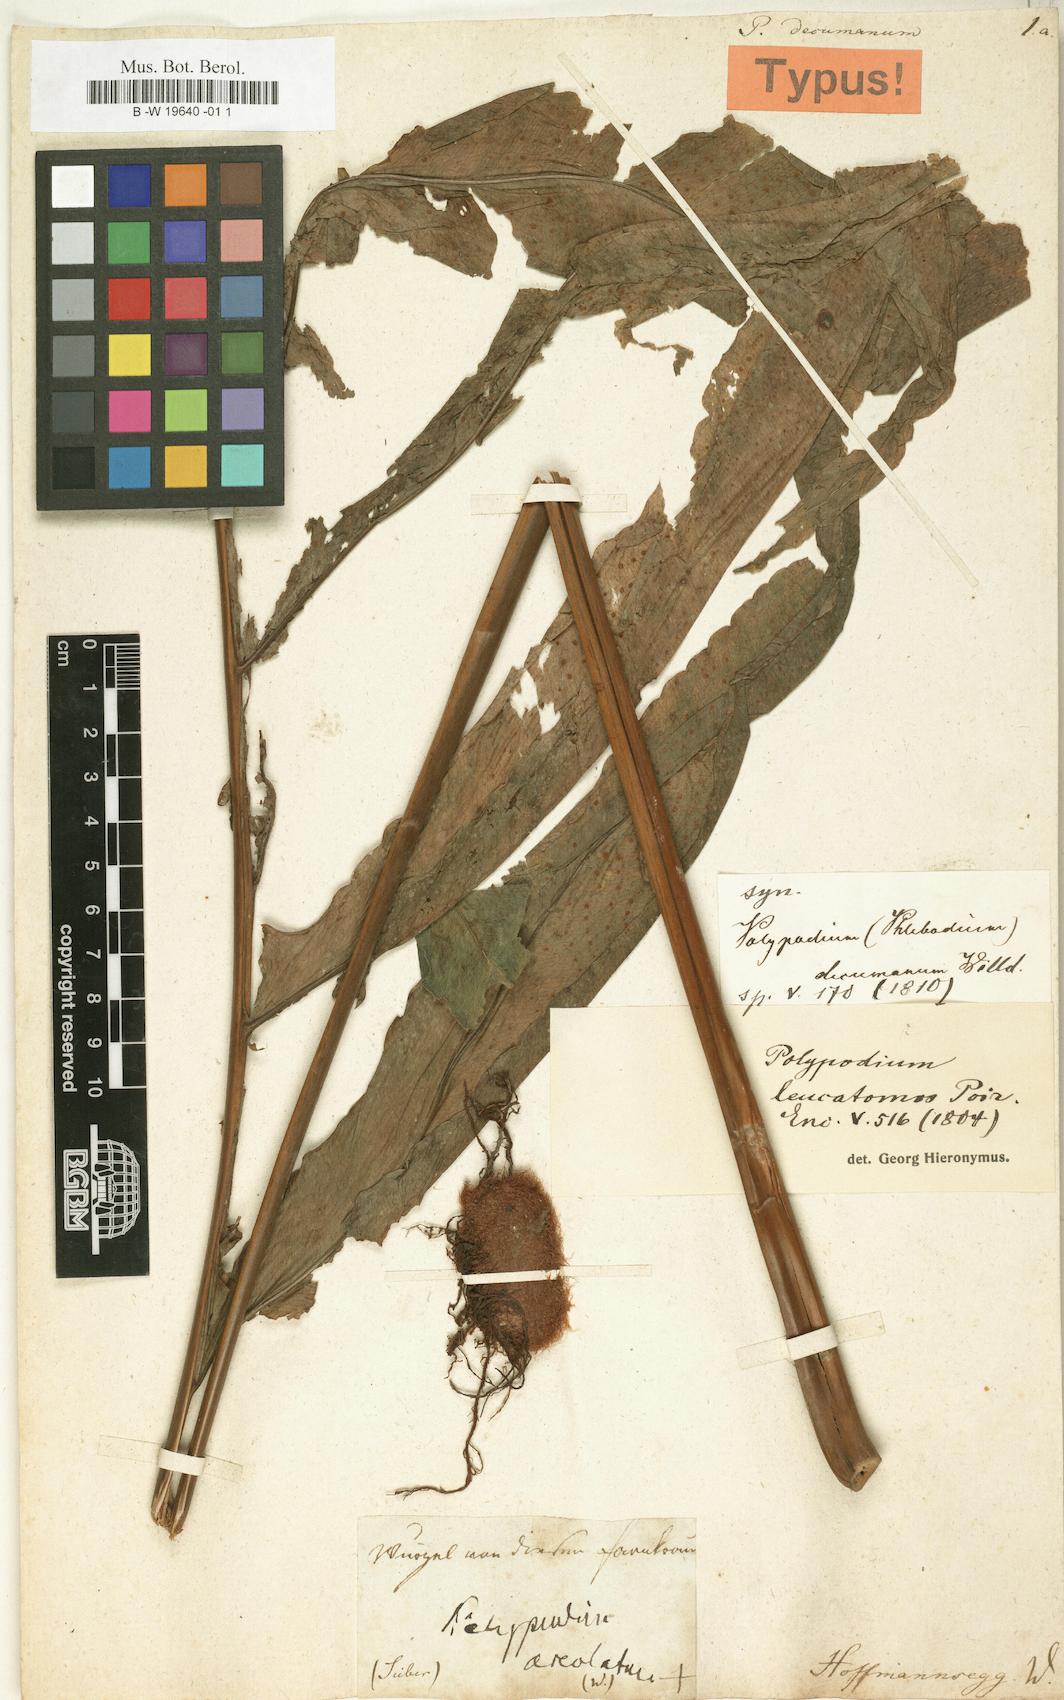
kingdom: Plantae
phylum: Tracheophyta
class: Polypodiopsida
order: Polypodiales
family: Polypodiaceae
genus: Phlebodium
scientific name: Phlebodium decumanum
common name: Golden polypod
